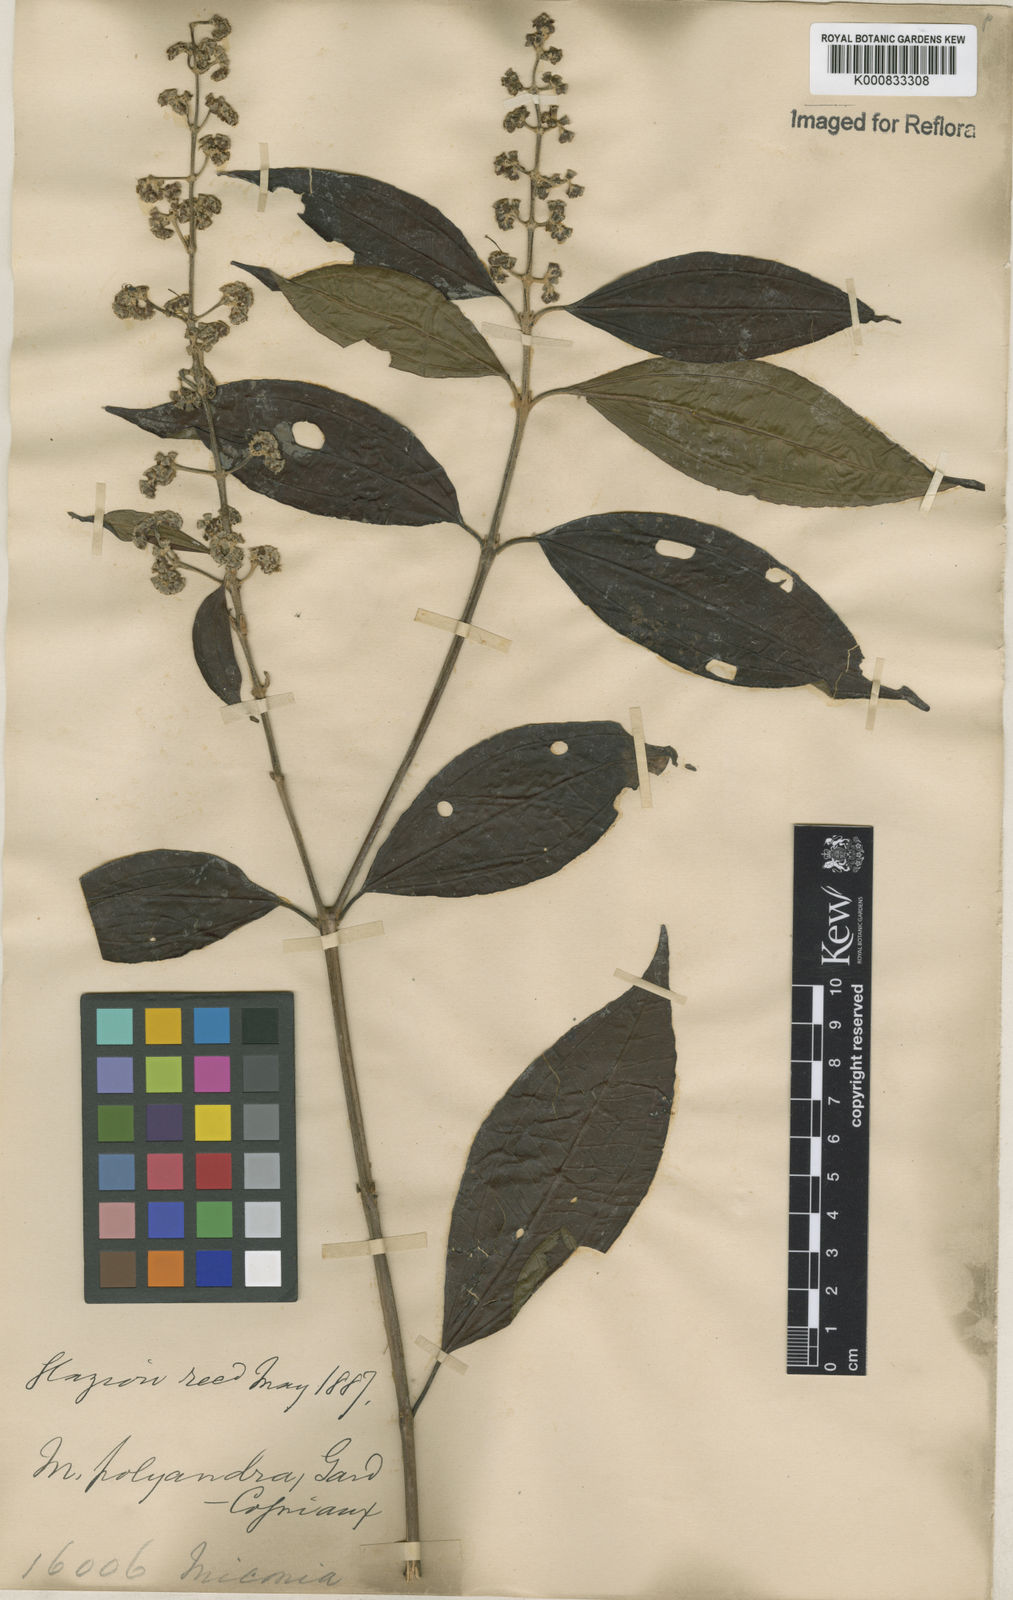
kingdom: Plantae
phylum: Tracheophyta
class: Magnoliopsida
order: Myrtales
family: Melastomataceae
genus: Miconia
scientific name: Miconia polyandra
